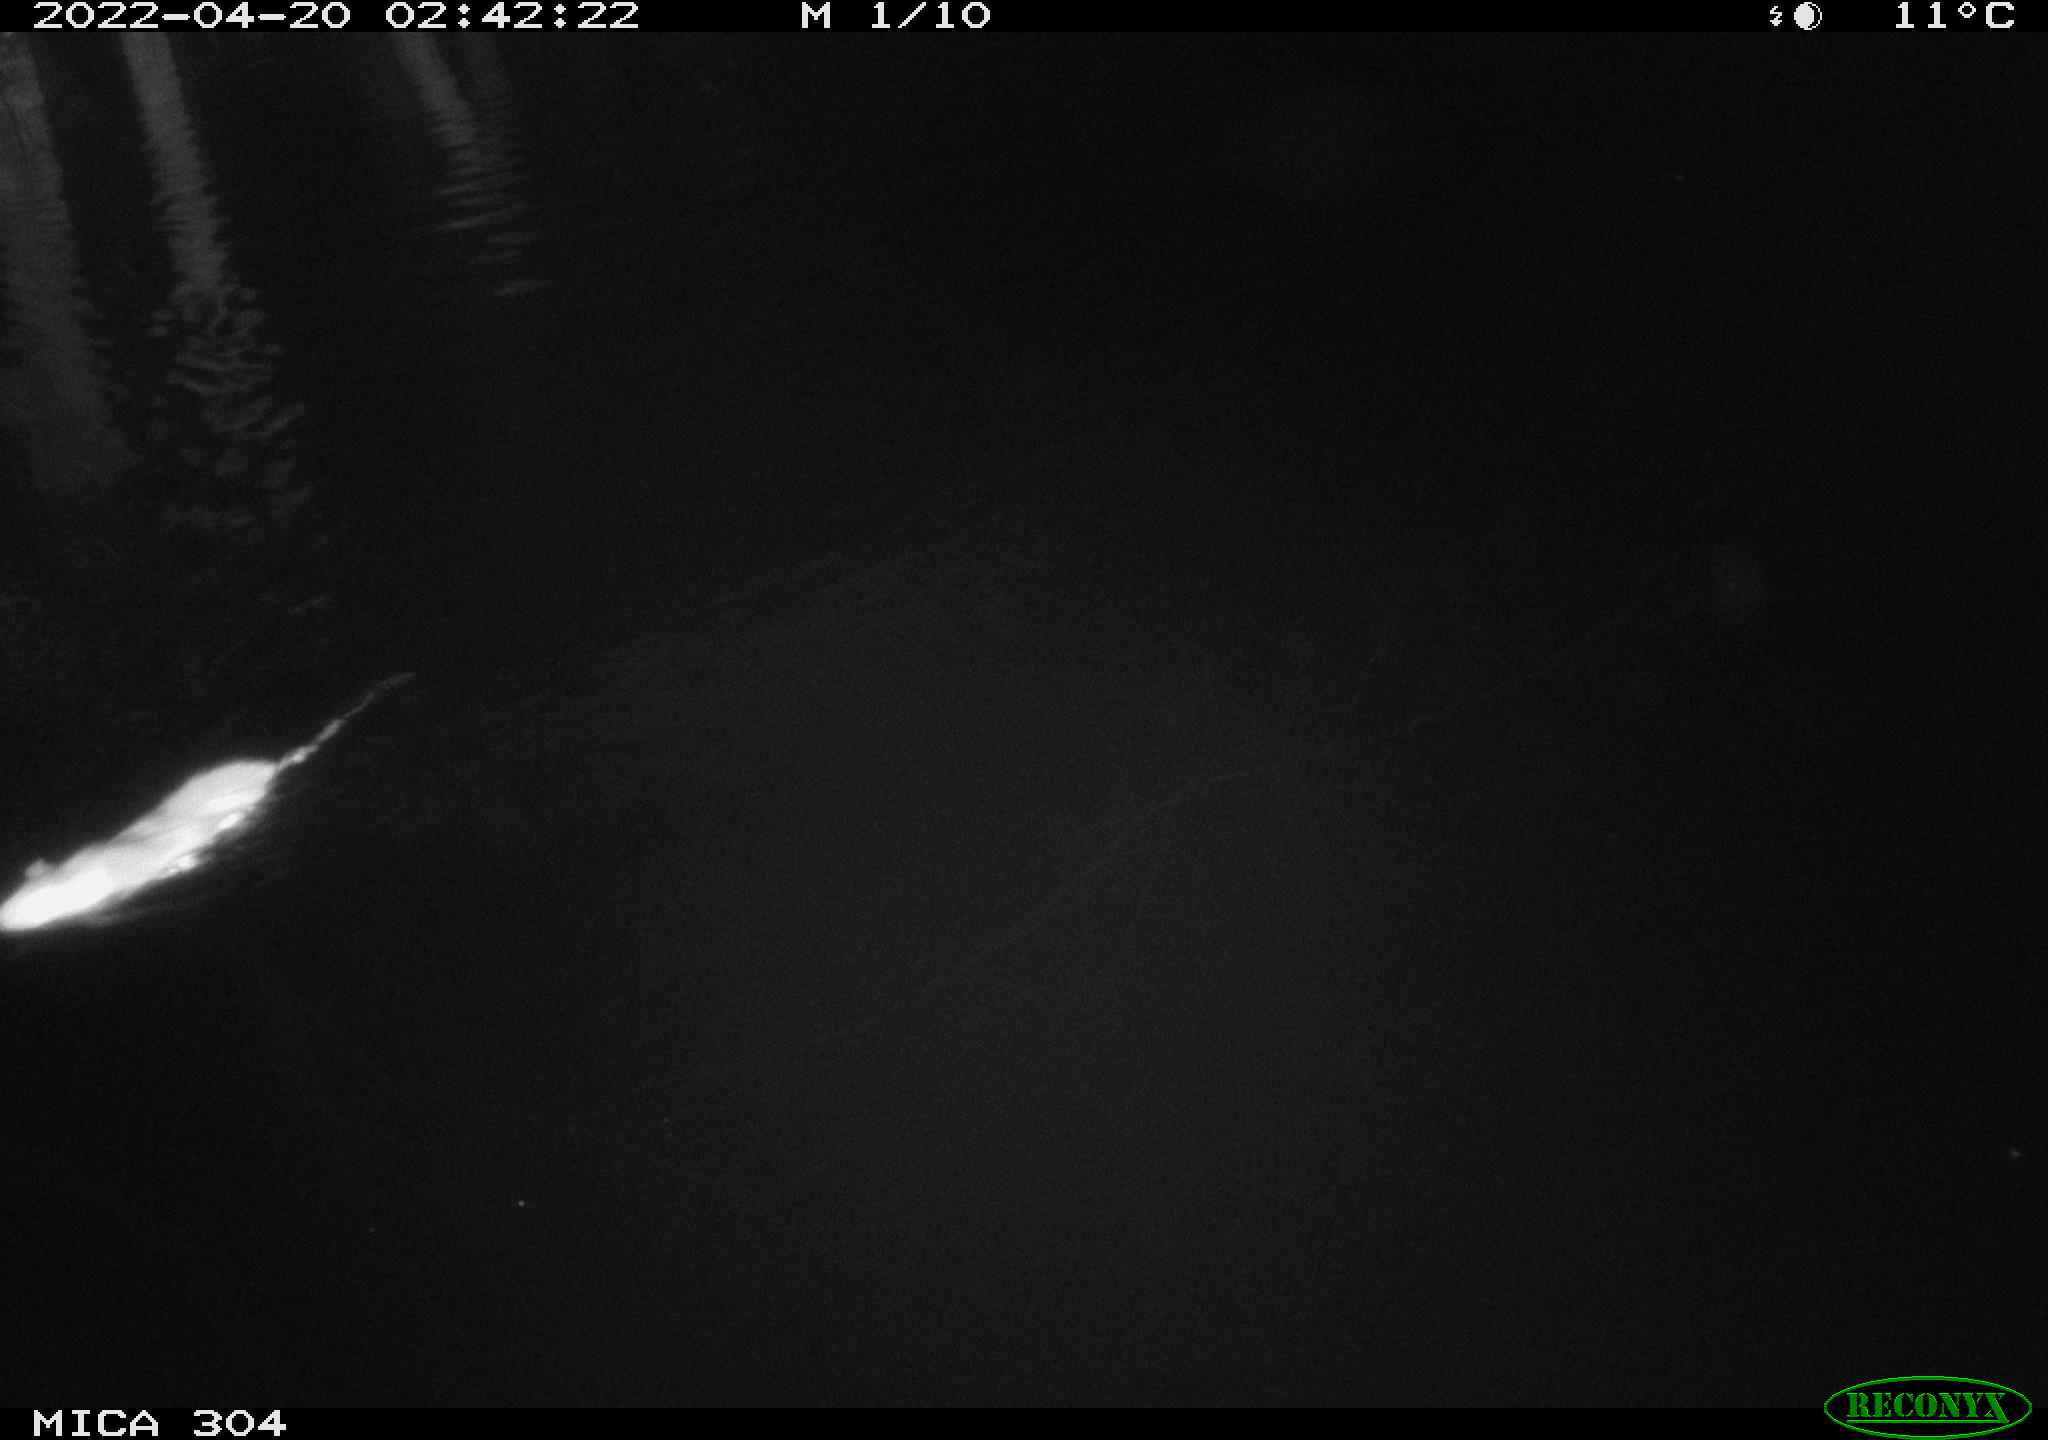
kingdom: Animalia
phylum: Chordata
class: Mammalia
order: Rodentia
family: Muridae
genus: Rattus
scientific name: Rattus norvegicus
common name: Brown rat
